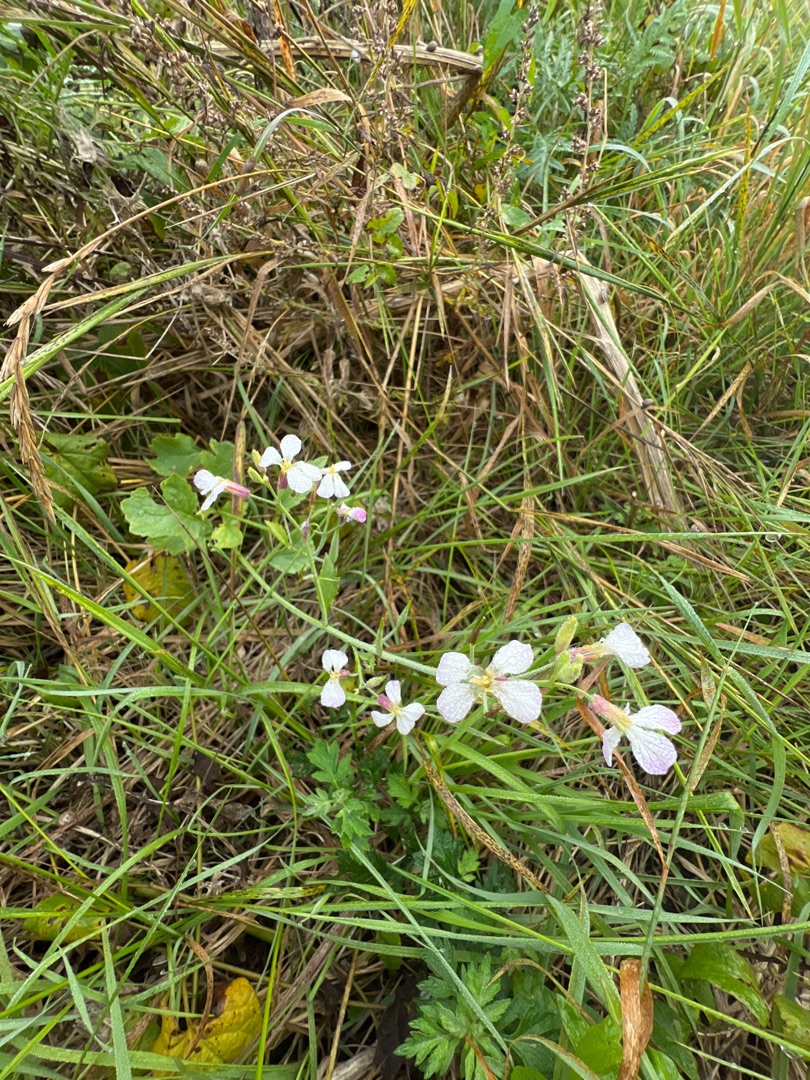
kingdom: Plantae
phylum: Tracheophyta
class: Magnoliopsida
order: Brassicales
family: Brassicaceae
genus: Raphanus
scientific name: Raphanus sativus
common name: Olie-ræddike
